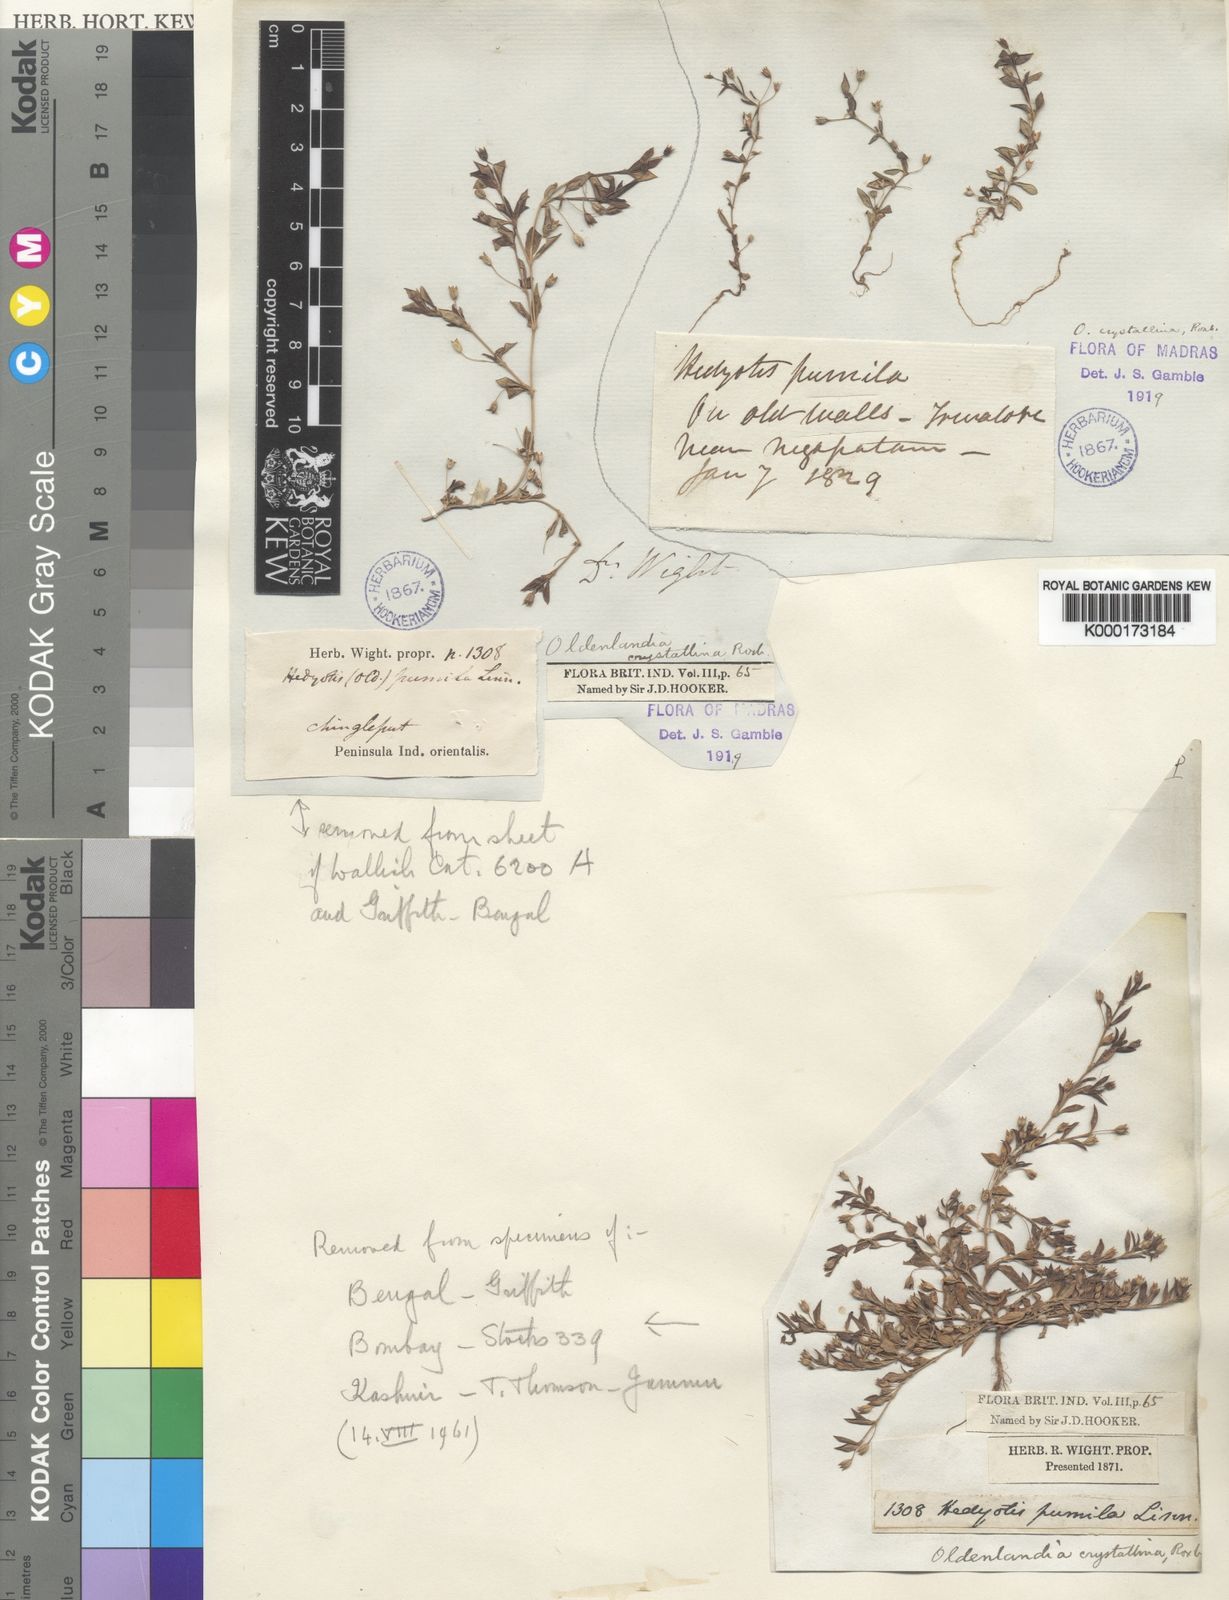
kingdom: Plantae
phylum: Tracheophyta
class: Magnoliopsida
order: Gentianales
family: Rubiaceae
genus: Oldenlandia
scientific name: Oldenlandia pumila
